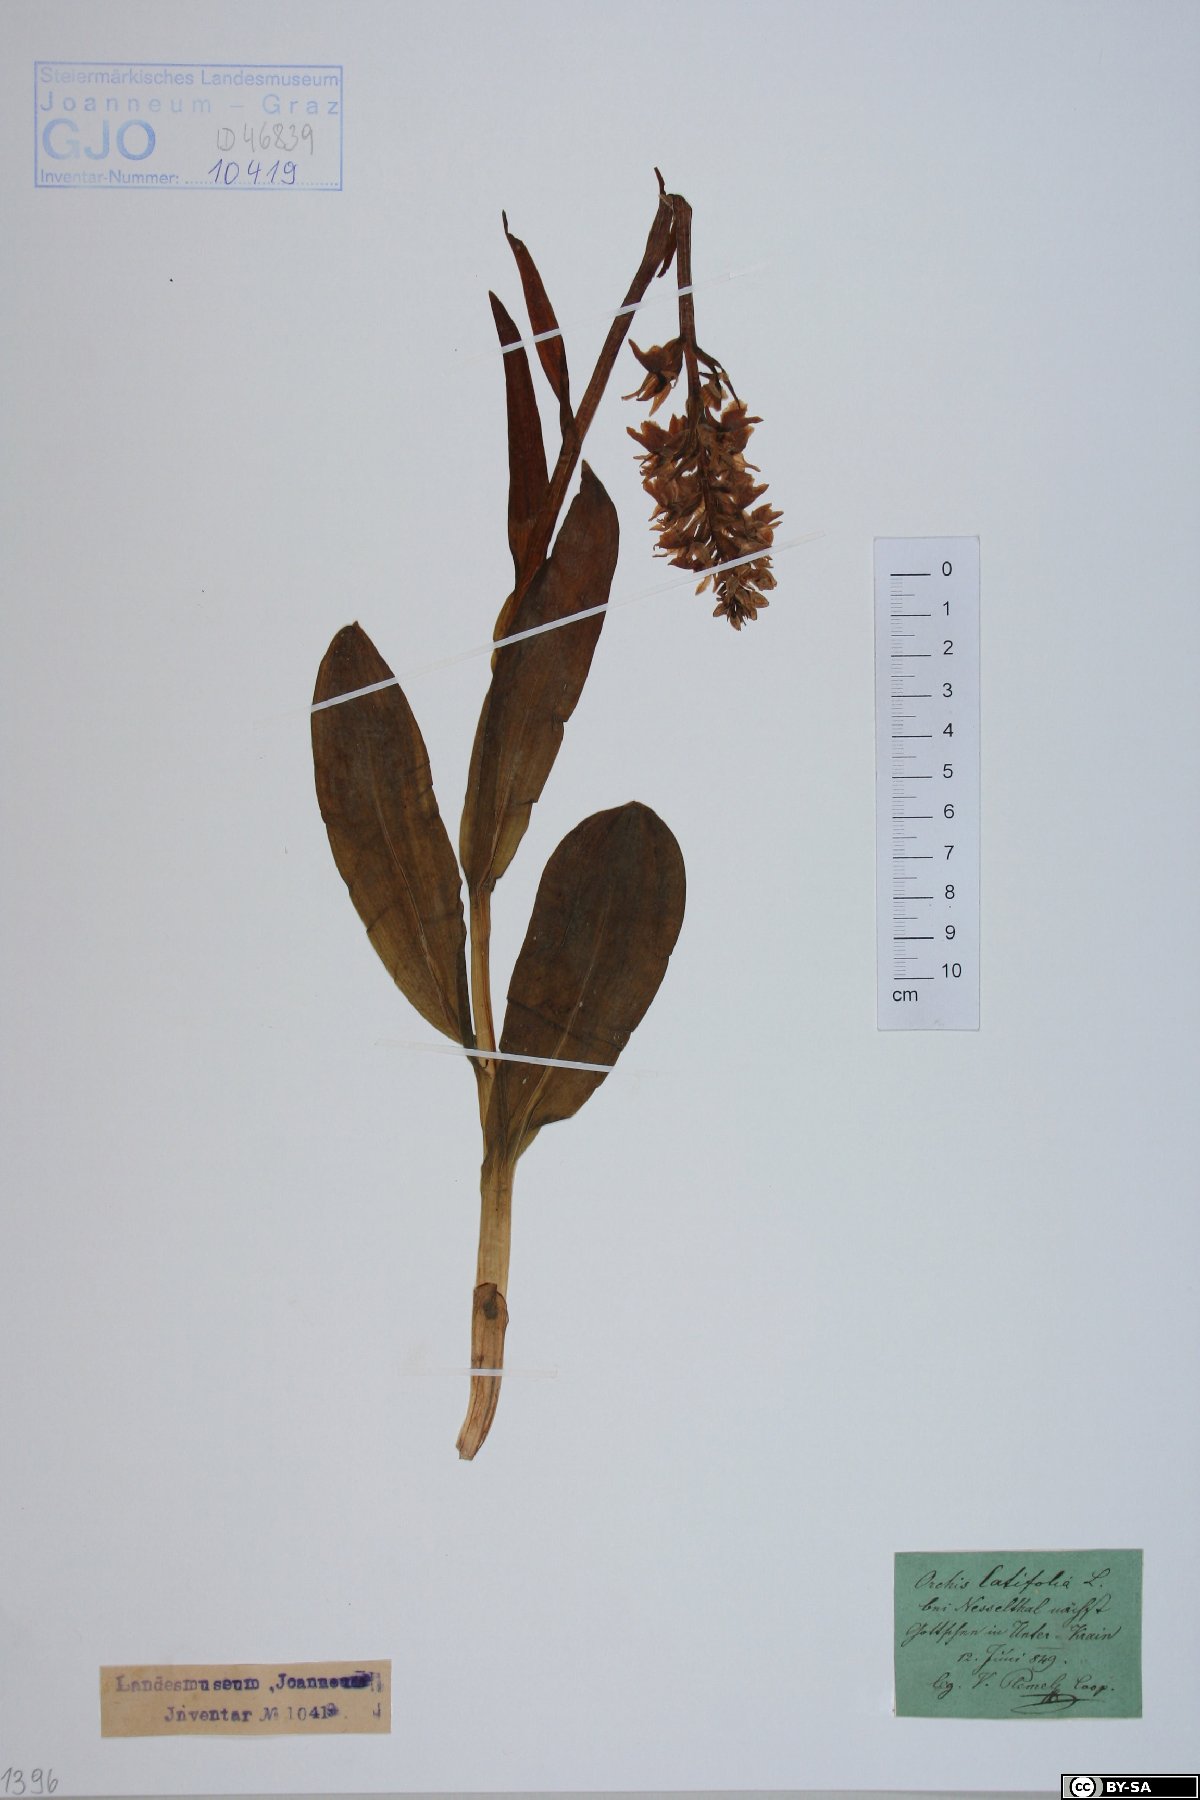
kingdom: Plantae
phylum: Tracheophyta
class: Liliopsida
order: Asparagales
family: Orchidaceae
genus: Dactylorhiza
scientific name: Dactylorhiza incarnata
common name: Early marsh-orchid
